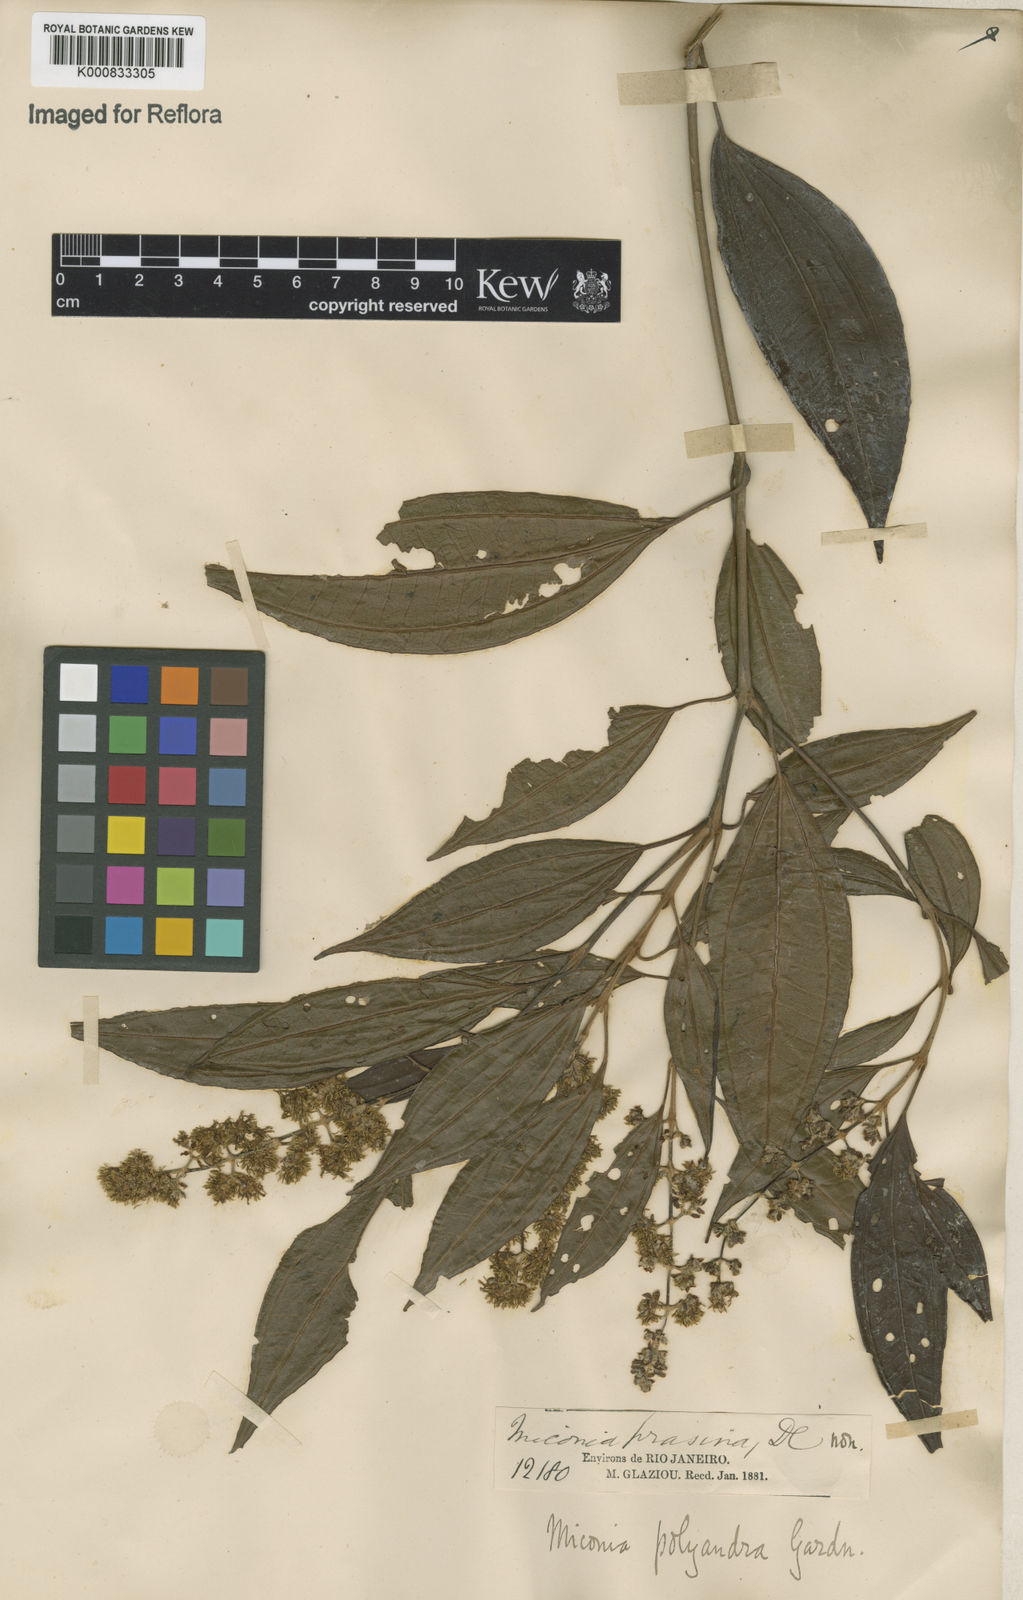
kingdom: Plantae
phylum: Tracheophyta
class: Magnoliopsida
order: Myrtales
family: Melastomataceae
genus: Miconia
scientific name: Miconia polyandra
